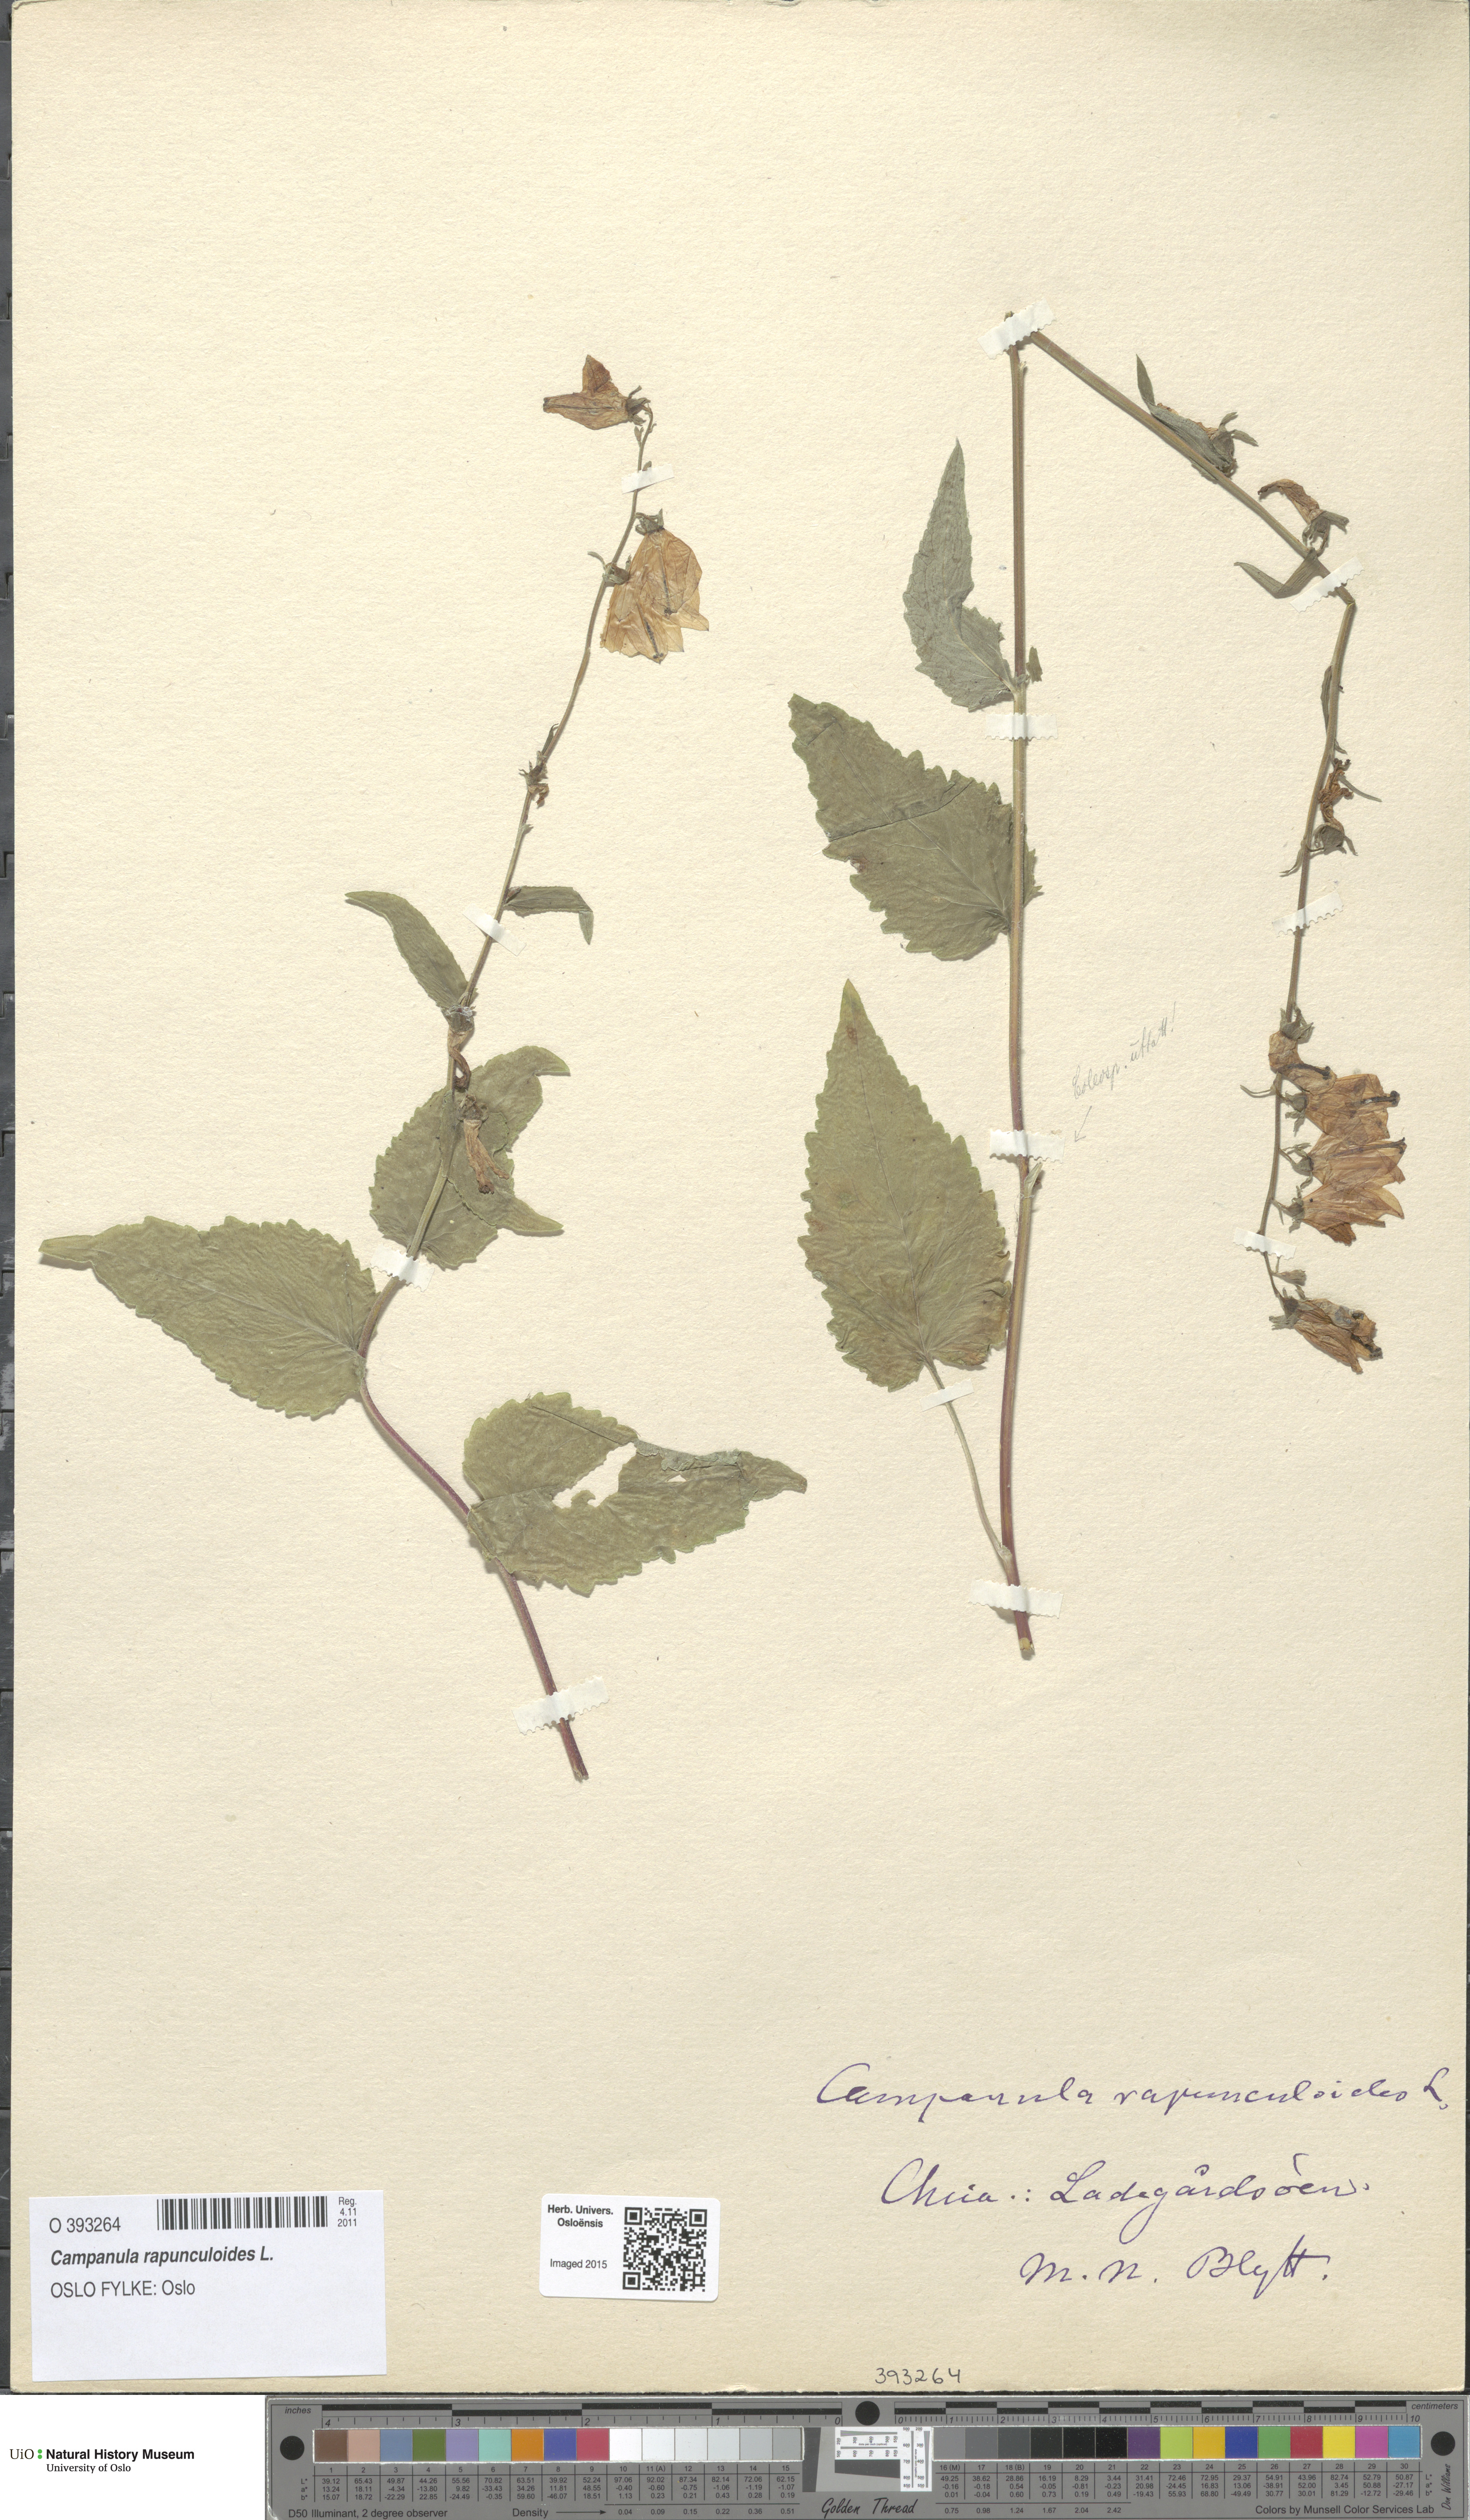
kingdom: Plantae
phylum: Tracheophyta
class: Magnoliopsida
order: Asterales
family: Campanulaceae
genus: Campanula
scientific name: Campanula rapunculoides
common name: Creeping bellflower
